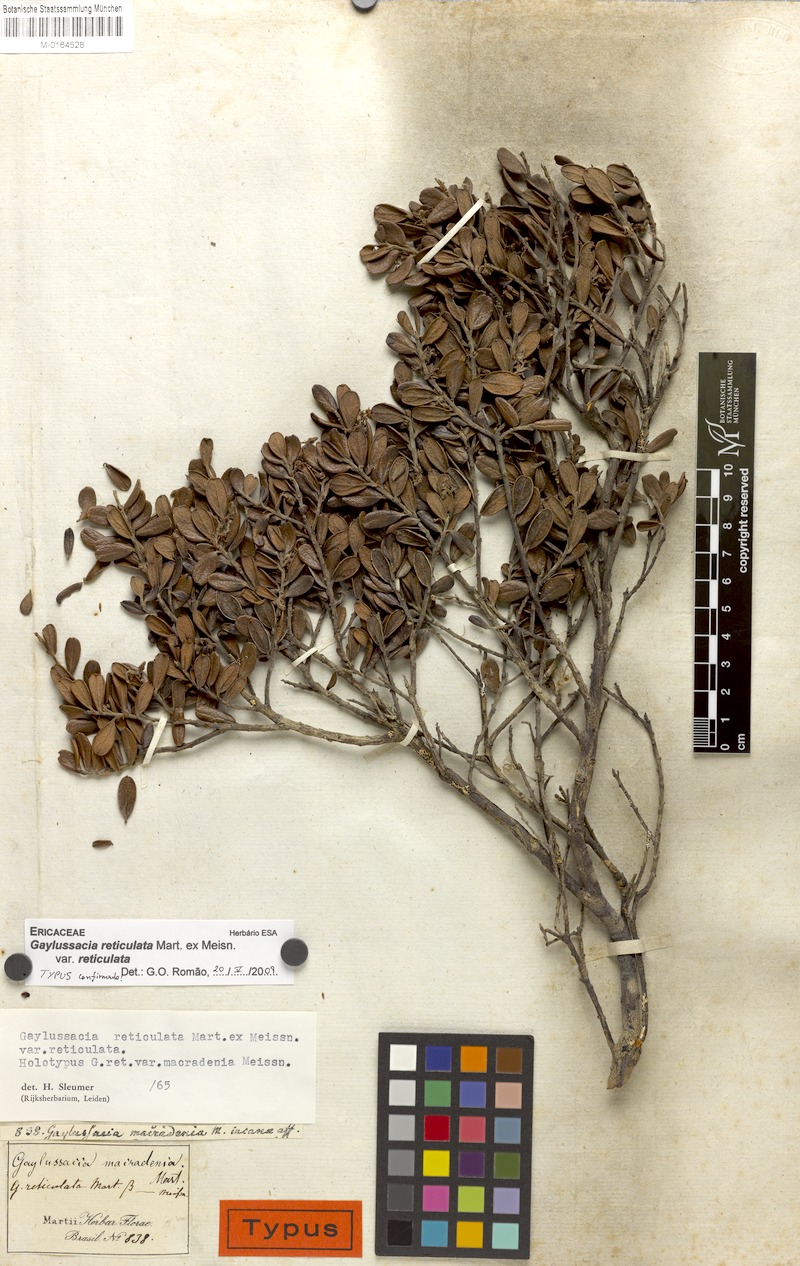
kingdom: Plantae
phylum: Tracheophyta
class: Magnoliopsida
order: Ericales
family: Ericaceae
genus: Gaylussacia
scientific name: Gaylussacia reticulata
